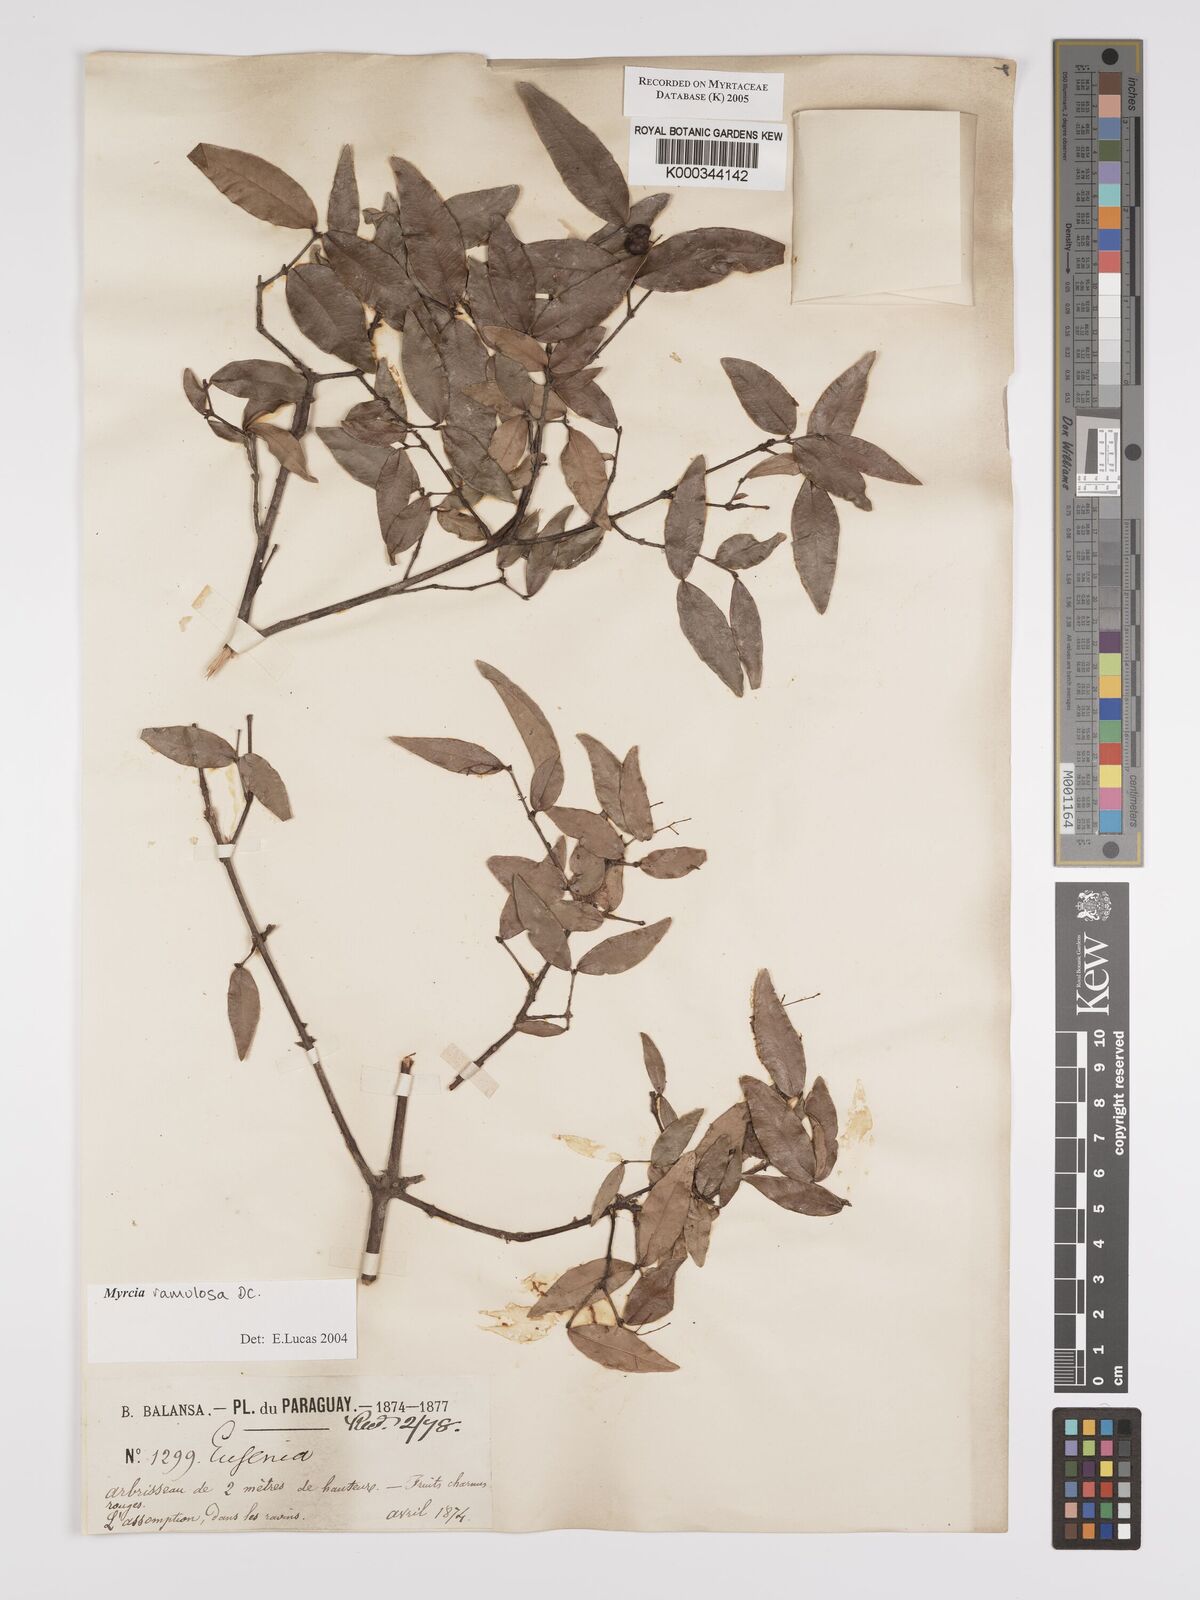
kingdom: Plantae
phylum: Tracheophyta
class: Magnoliopsida
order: Myrtales
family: Myrtaceae
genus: Myrcia
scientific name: Myrcia selloi
